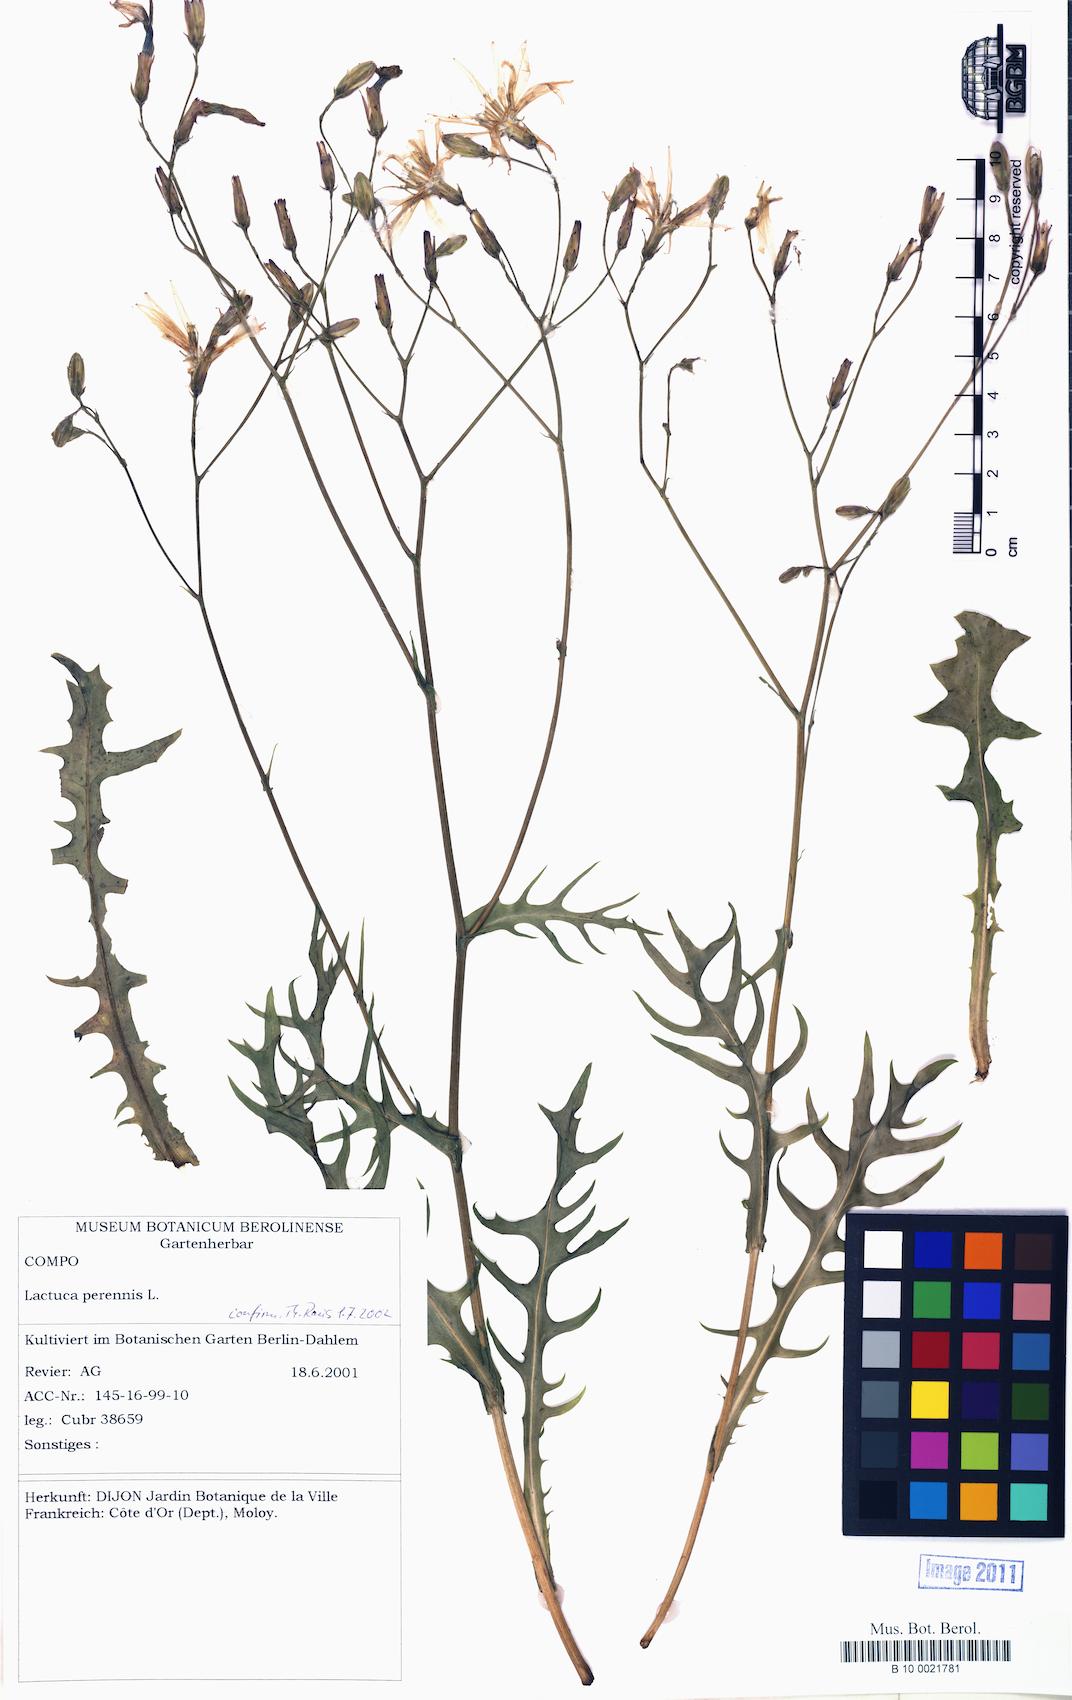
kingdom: Plantae
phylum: Tracheophyta
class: Magnoliopsida
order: Asterales
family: Asteraceae
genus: Lactuca
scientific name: Lactuca perennis
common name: Mountain lettuce
